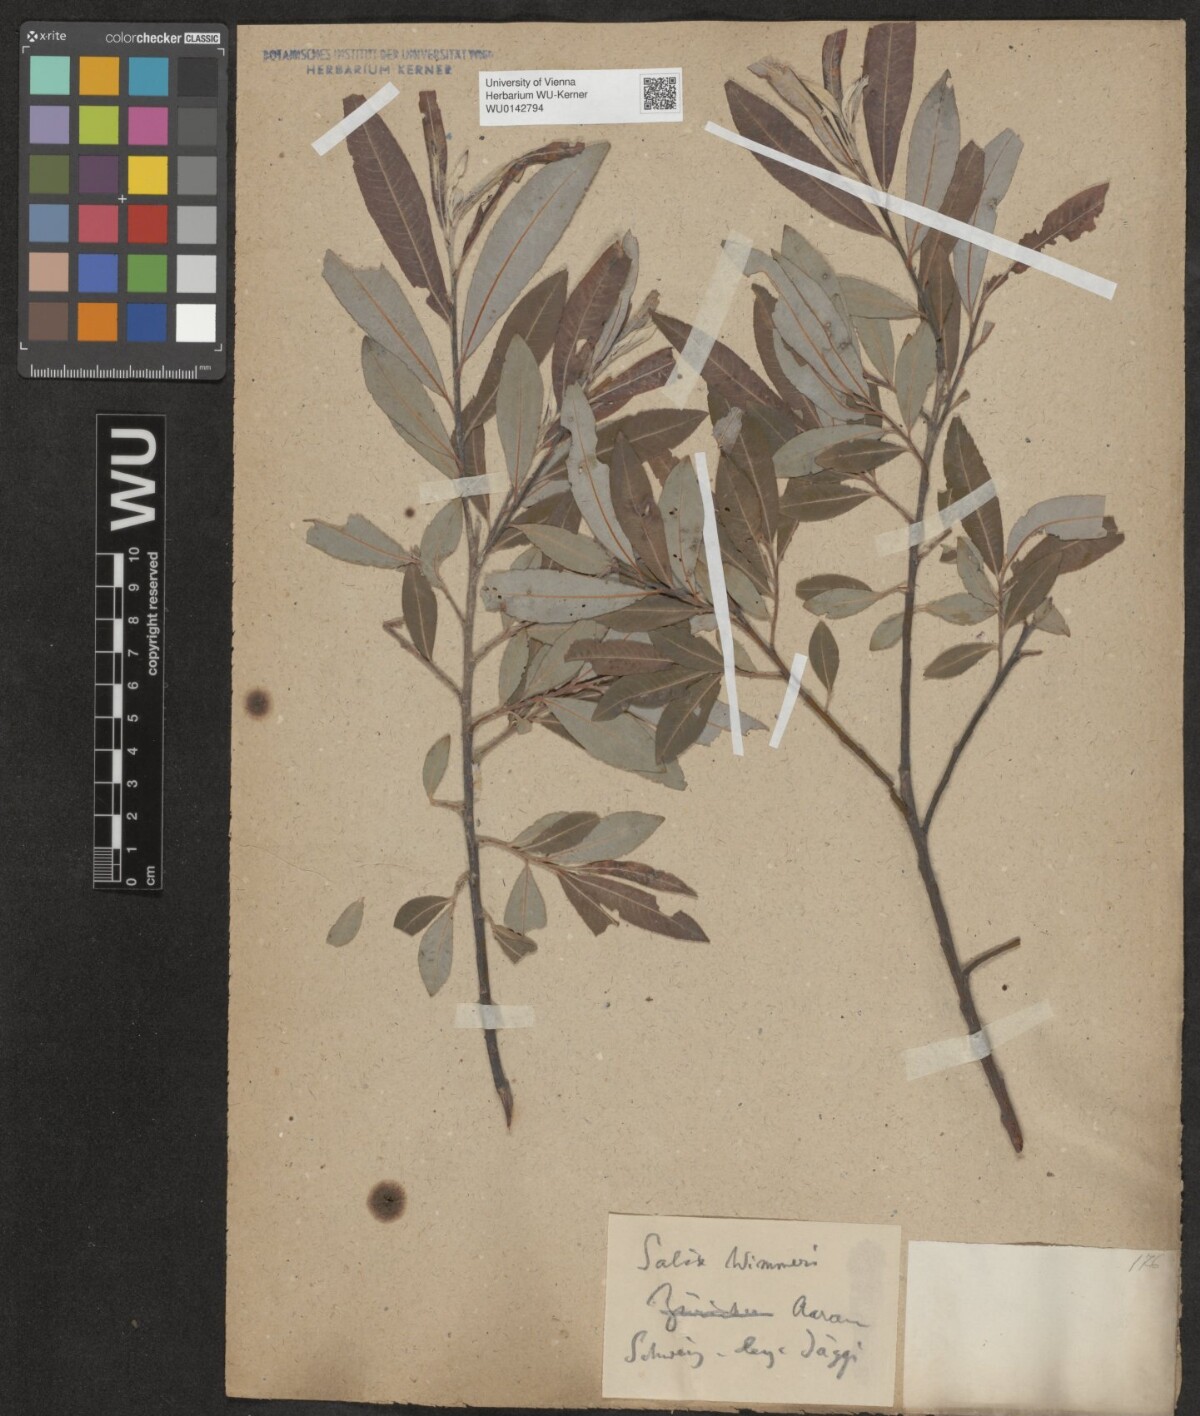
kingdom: Plantae
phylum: Tracheophyta
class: Magnoliopsida
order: Malpighiales
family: Salicaceae
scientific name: Salicaceae
